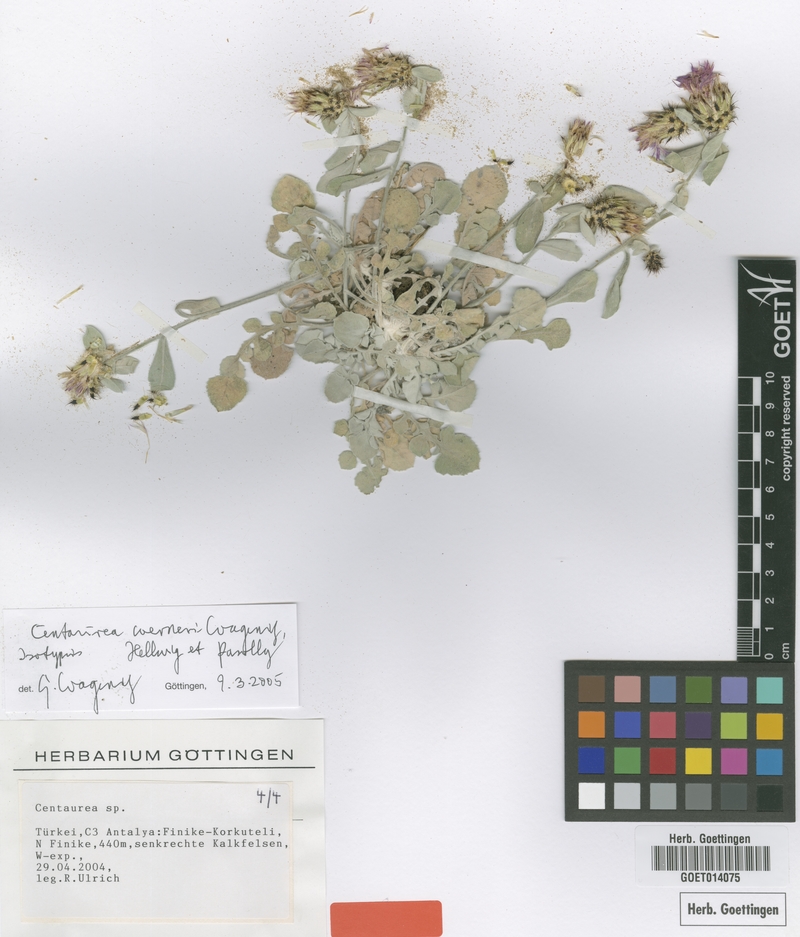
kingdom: Plantae
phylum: Tracheophyta
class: Magnoliopsida
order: Asterales
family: Asteraceae
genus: Centaurea
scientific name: Centaurea werneri
